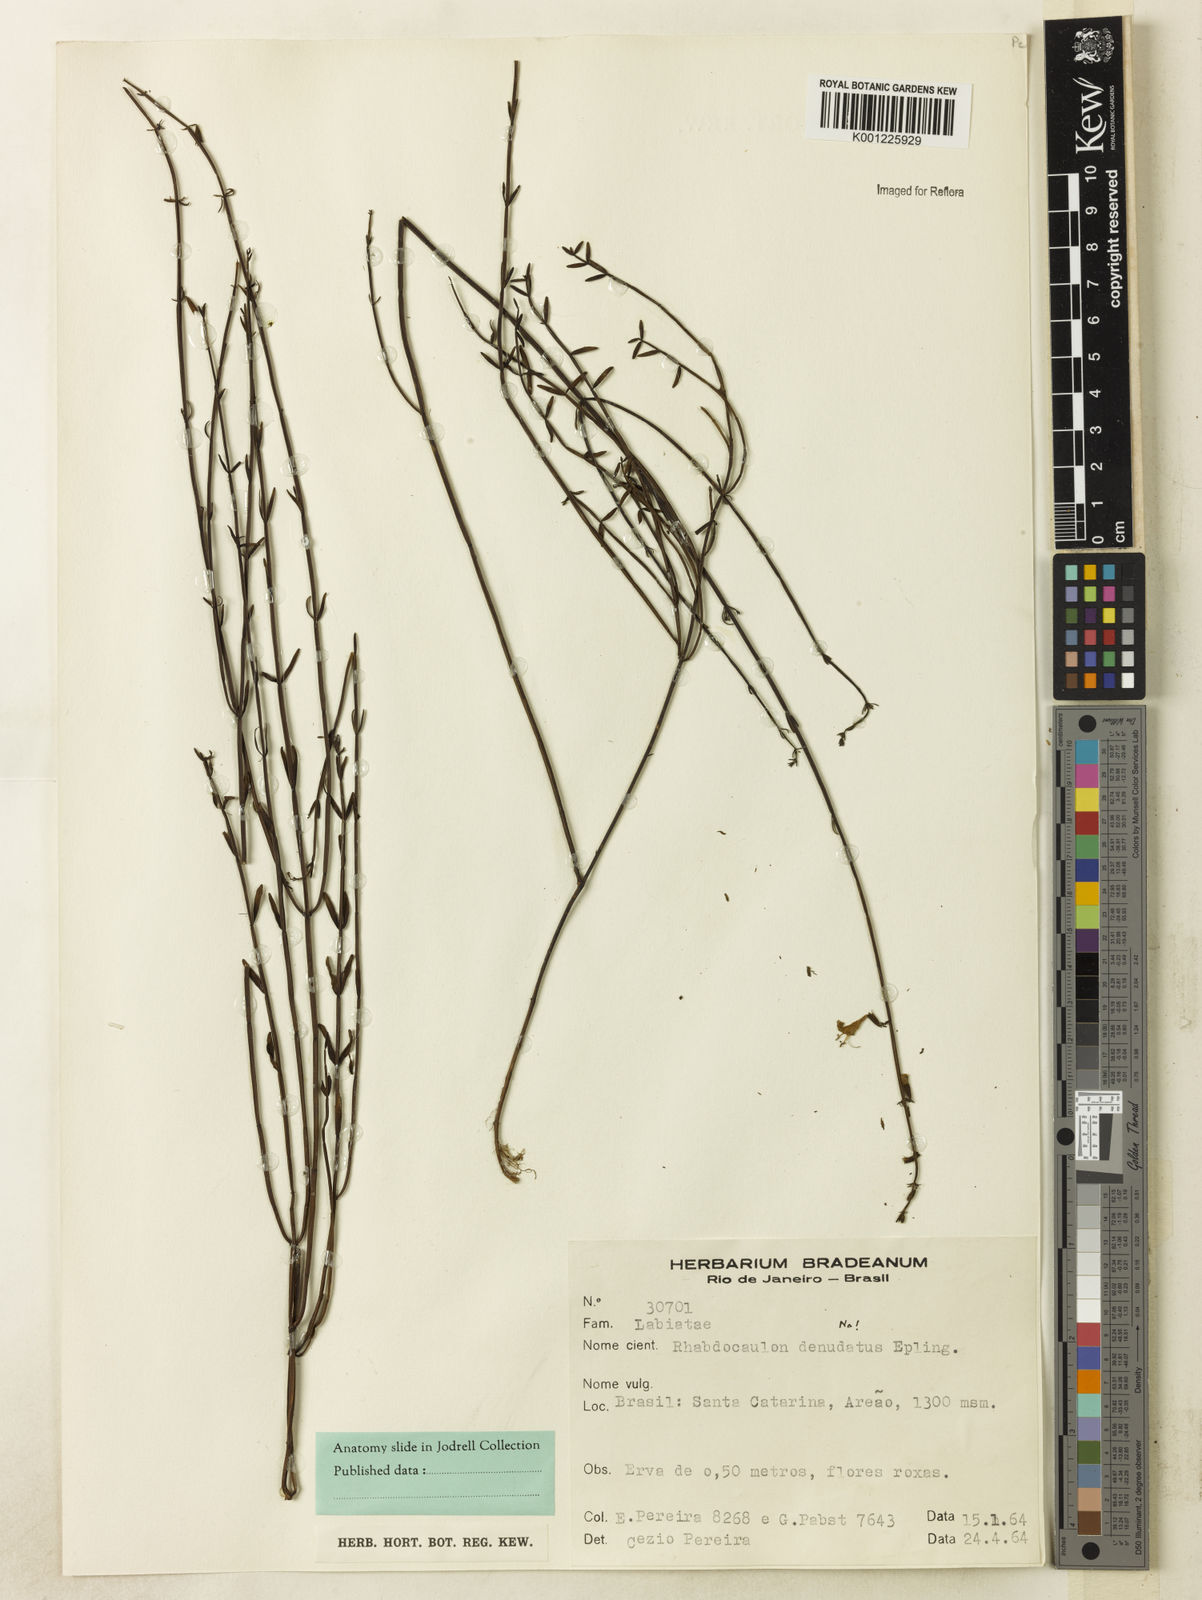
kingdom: Plantae
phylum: Tracheophyta
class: Magnoliopsida
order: Lamiales
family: Lamiaceae
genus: Rhabdocaulon
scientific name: Rhabdocaulon erythrostachys
